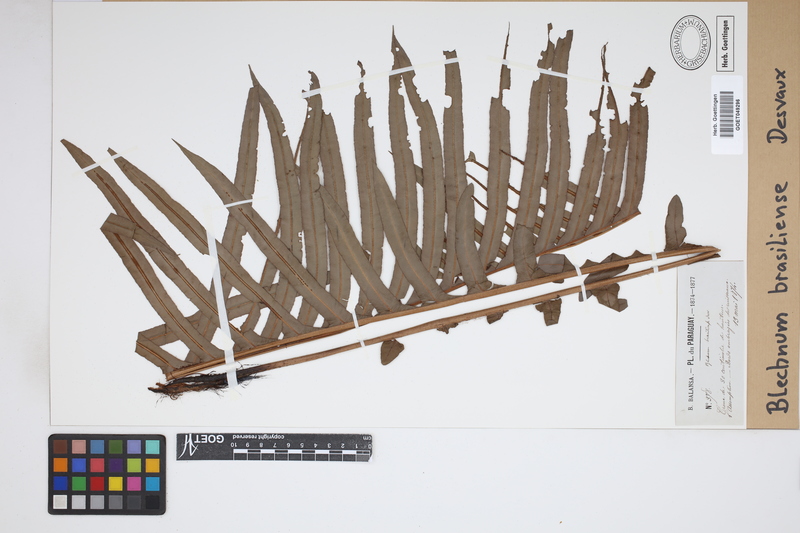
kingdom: Plantae
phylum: Tracheophyta
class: Polypodiopsida
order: Polypodiales
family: Blechnaceae
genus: Neoblechnum
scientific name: Neoblechnum brasiliense
